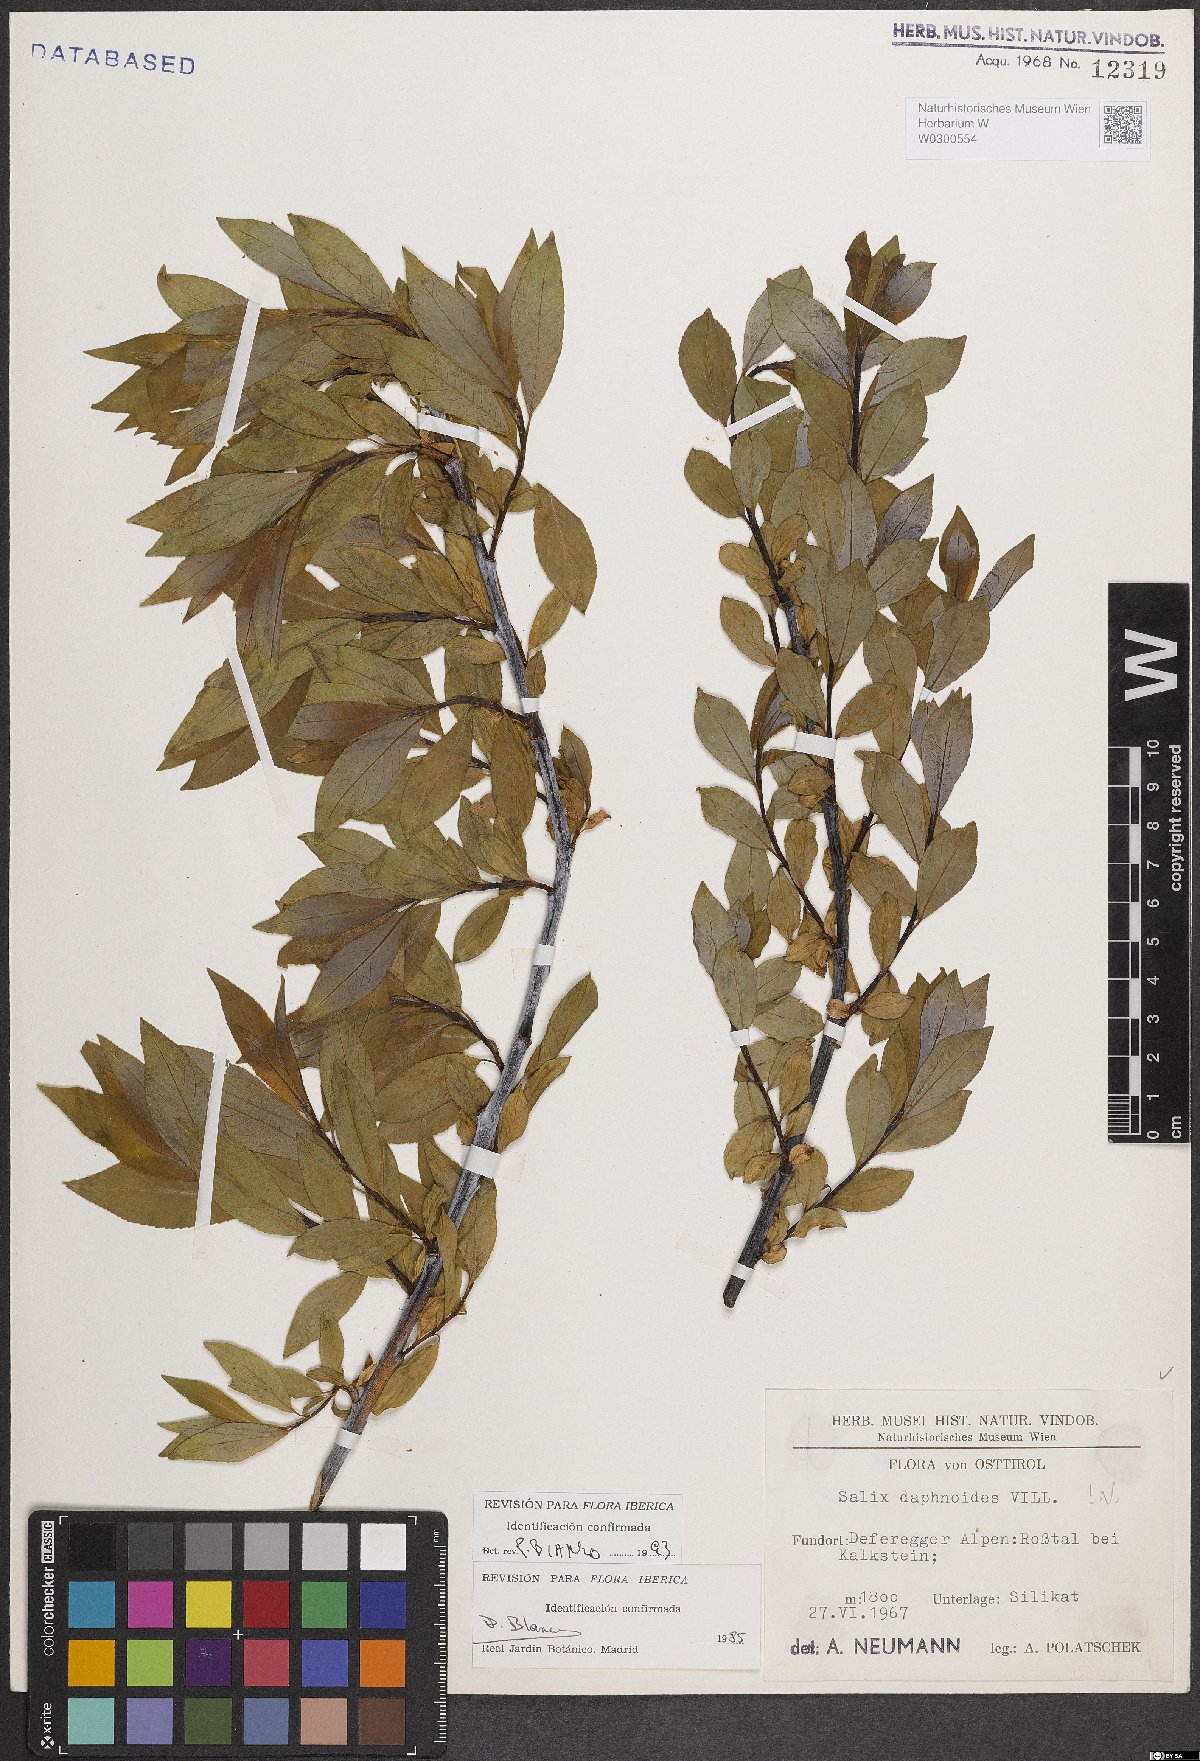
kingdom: Plantae
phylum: Tracheophyta
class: Magnoliopsida
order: Malpighiales
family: Salicaceae
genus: Salix
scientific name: Salix daphnoides
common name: European violet-willow
